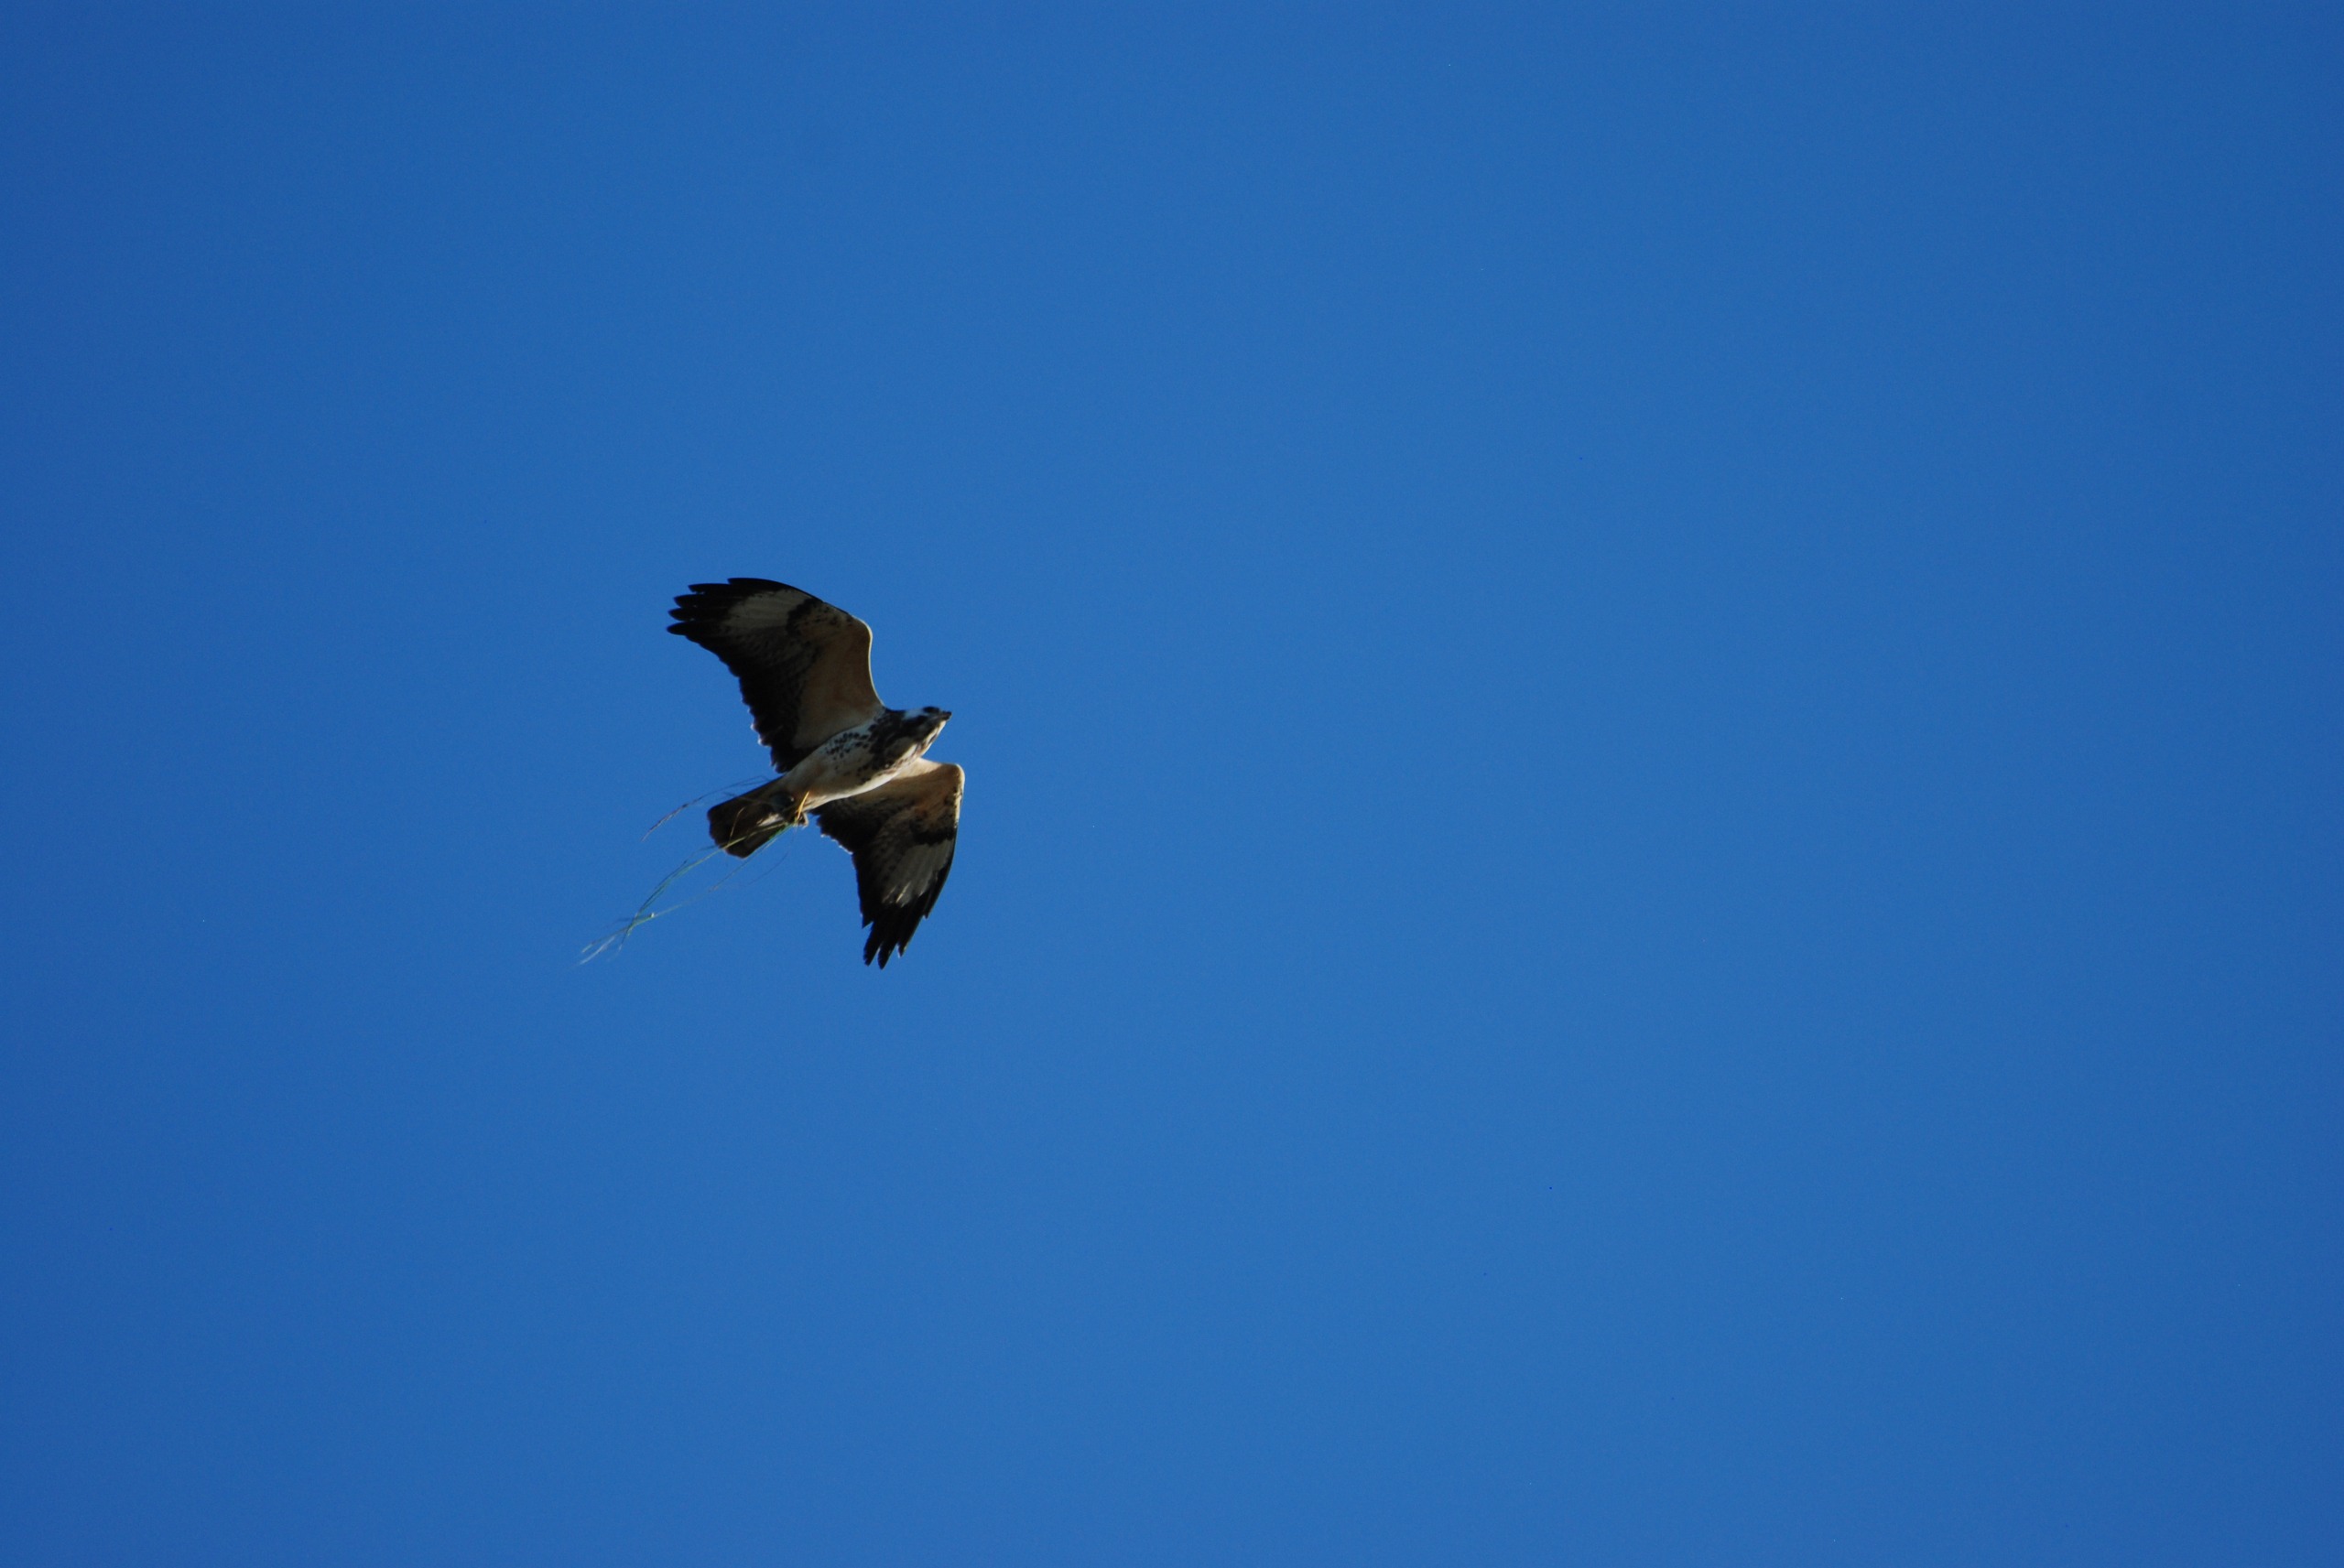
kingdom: Animalia
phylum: Chordata
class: Aves
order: Accipitriformes
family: Accipitridae
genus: Buteo
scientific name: Buteo buteo
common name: Musvåge
